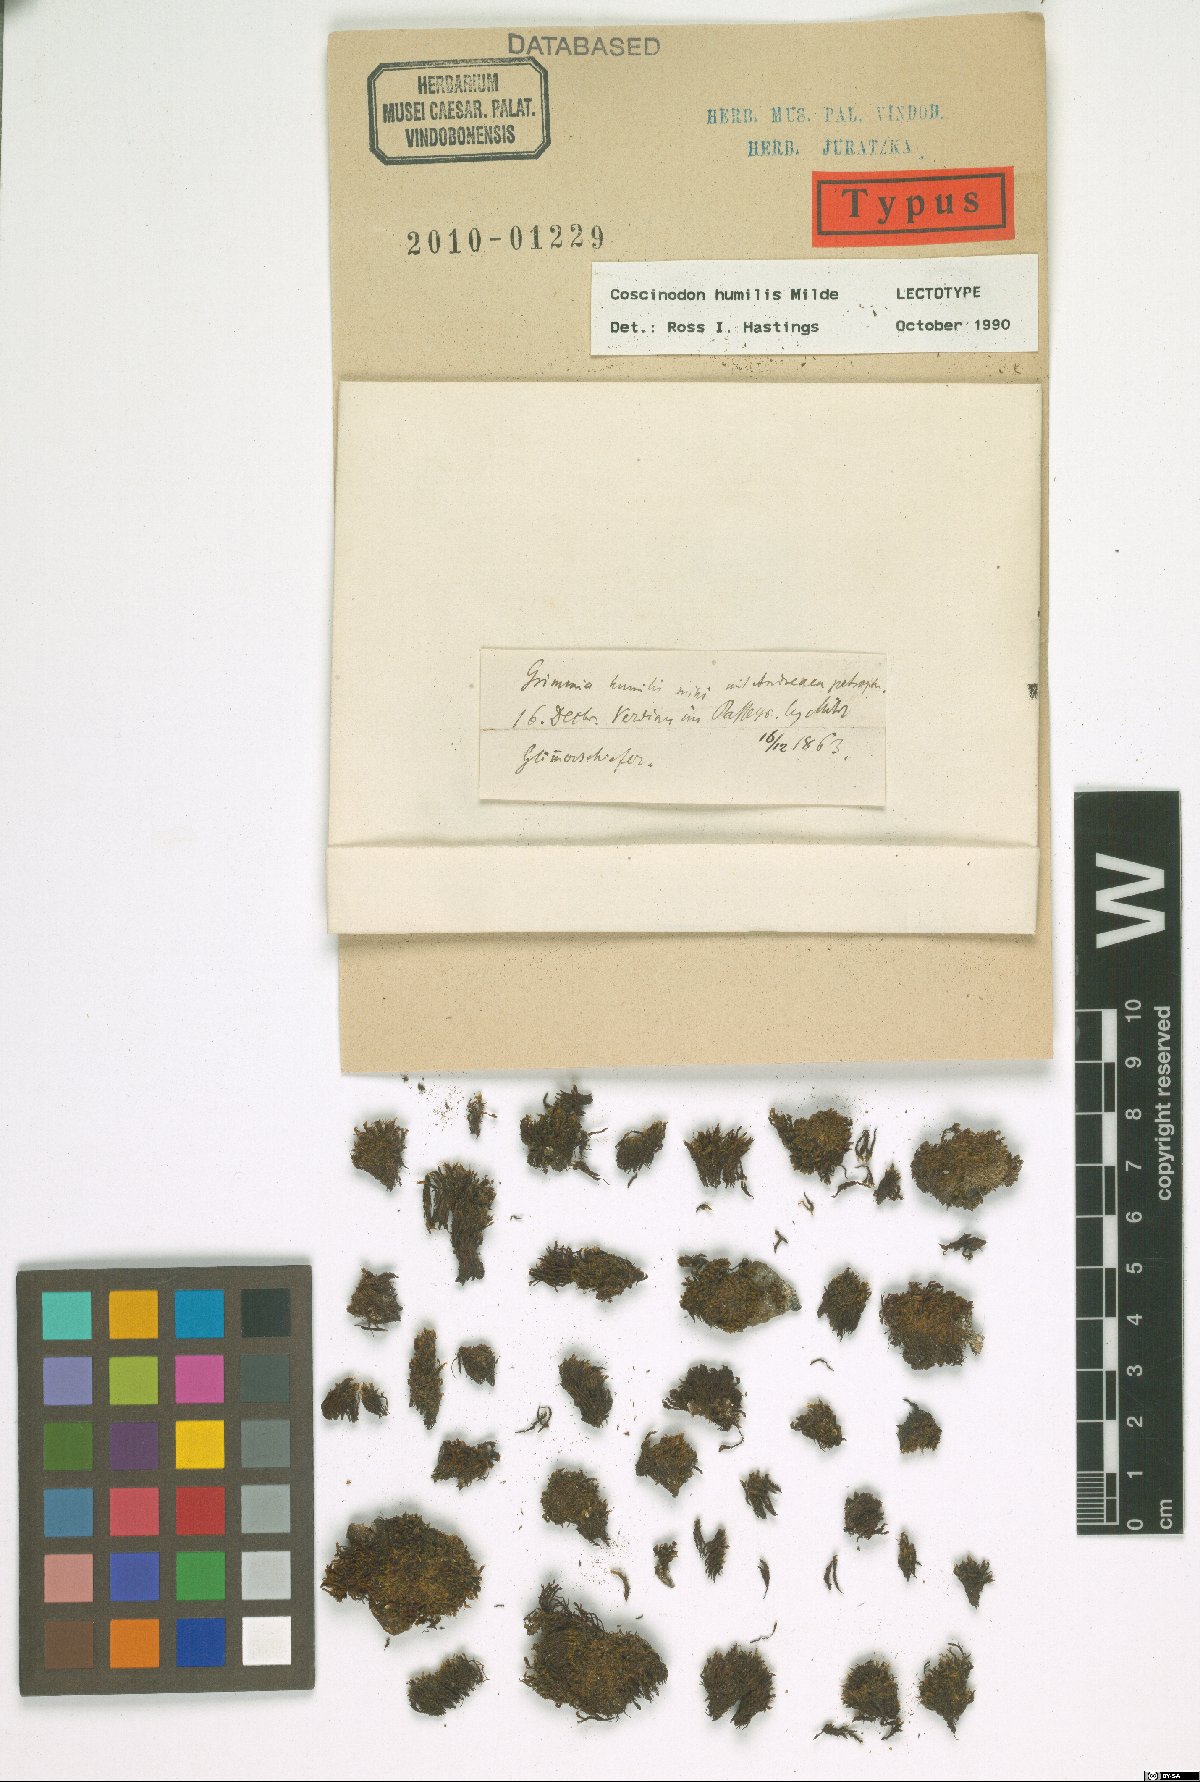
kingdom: Plantae
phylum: Bryophyta
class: Bryopsida
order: Grimmiales
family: Grimmiaceae
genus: Coscinodon
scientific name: Coscinodon humilis
